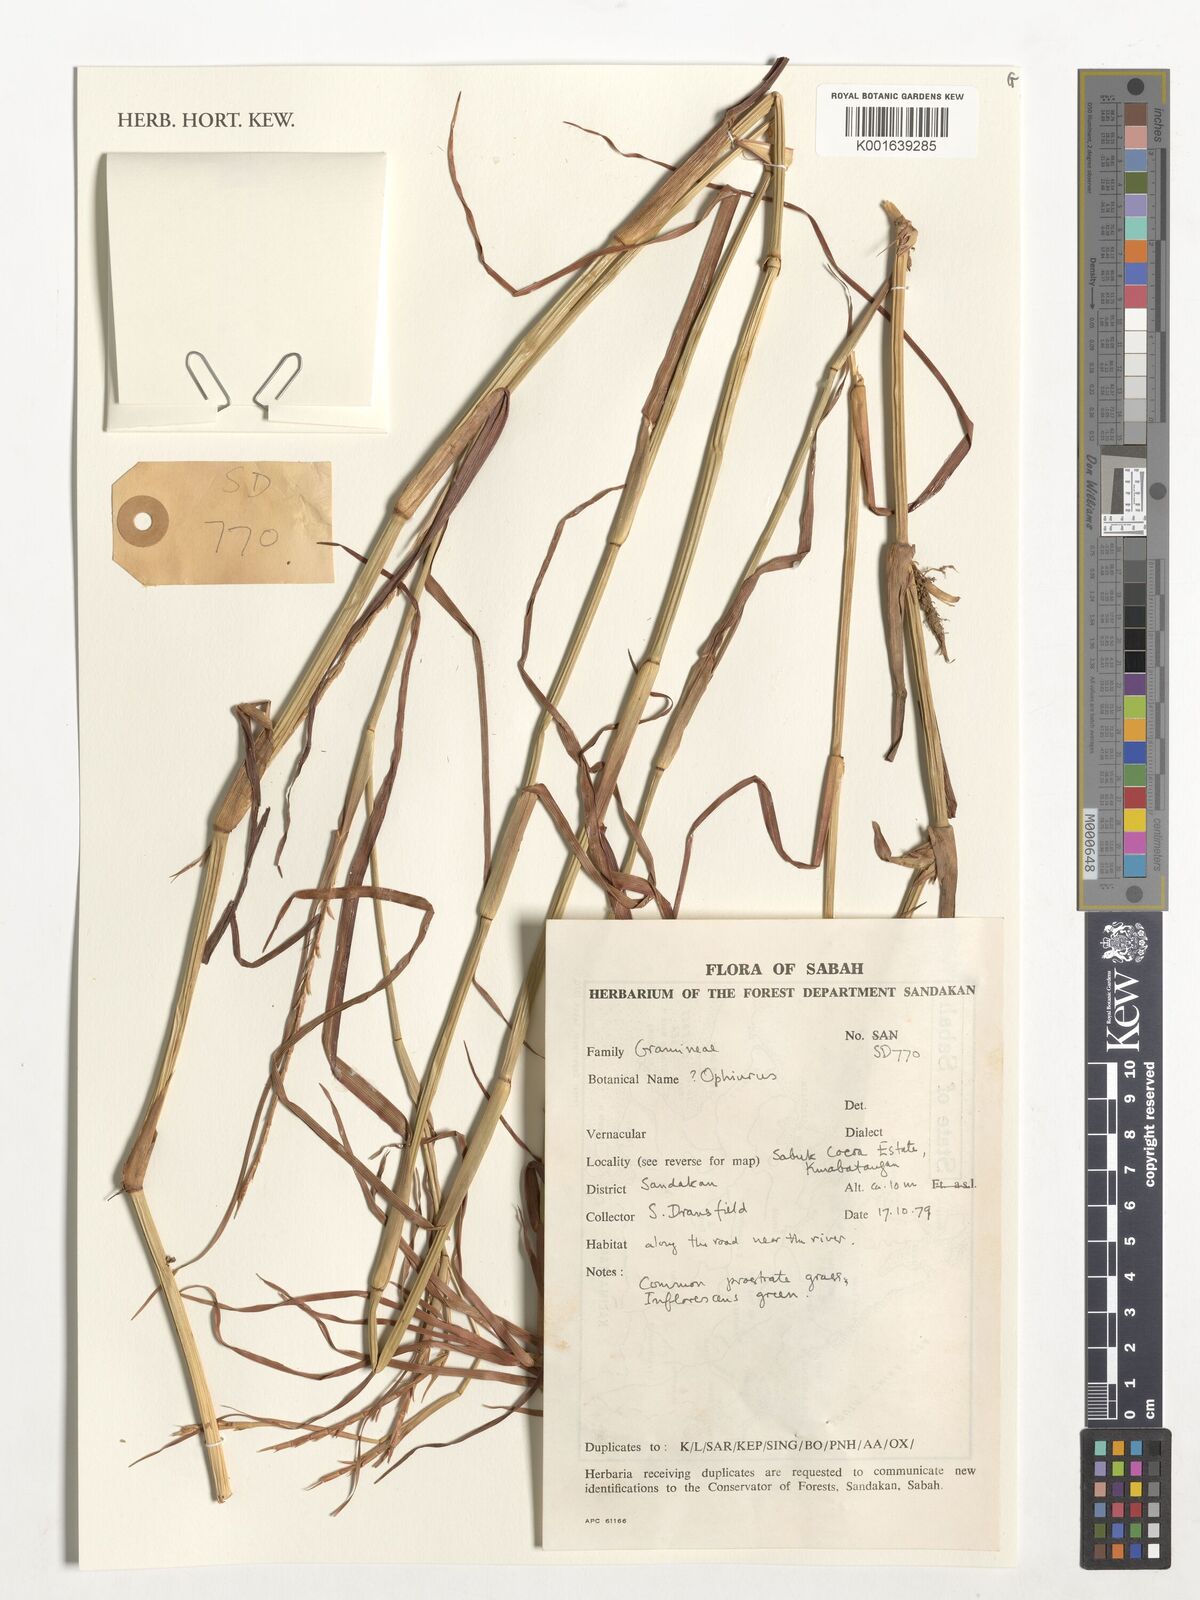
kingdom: Plantae
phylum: Tracheophyta
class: Liliopsida
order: Poales
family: Poaceae
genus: Ophiuros
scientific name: Ophiuros
